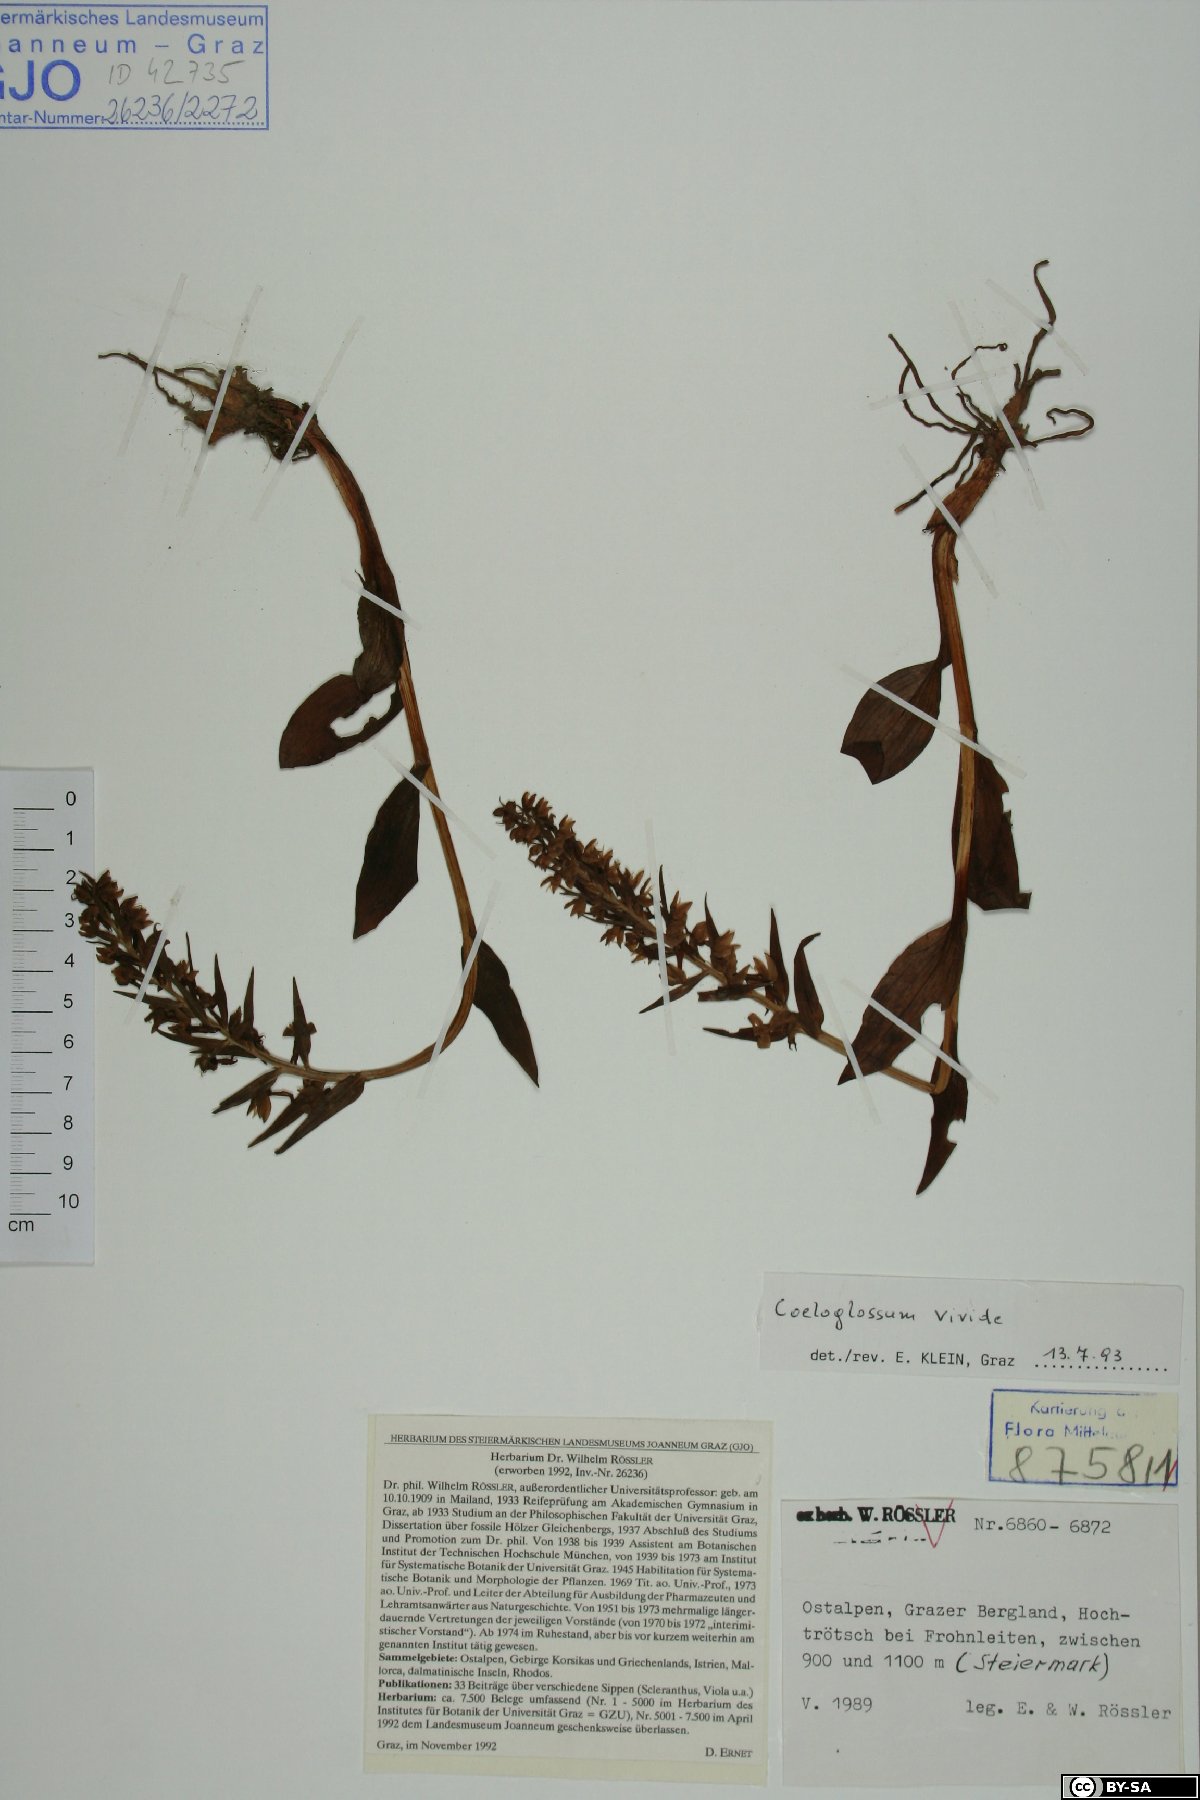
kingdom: Plantae
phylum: Tracheophyta
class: Liliopsida
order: Asparagales
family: Orchidaceae
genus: Dactylorhiza
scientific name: Dactylorhiza viridis
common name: Longbract frog orchid
